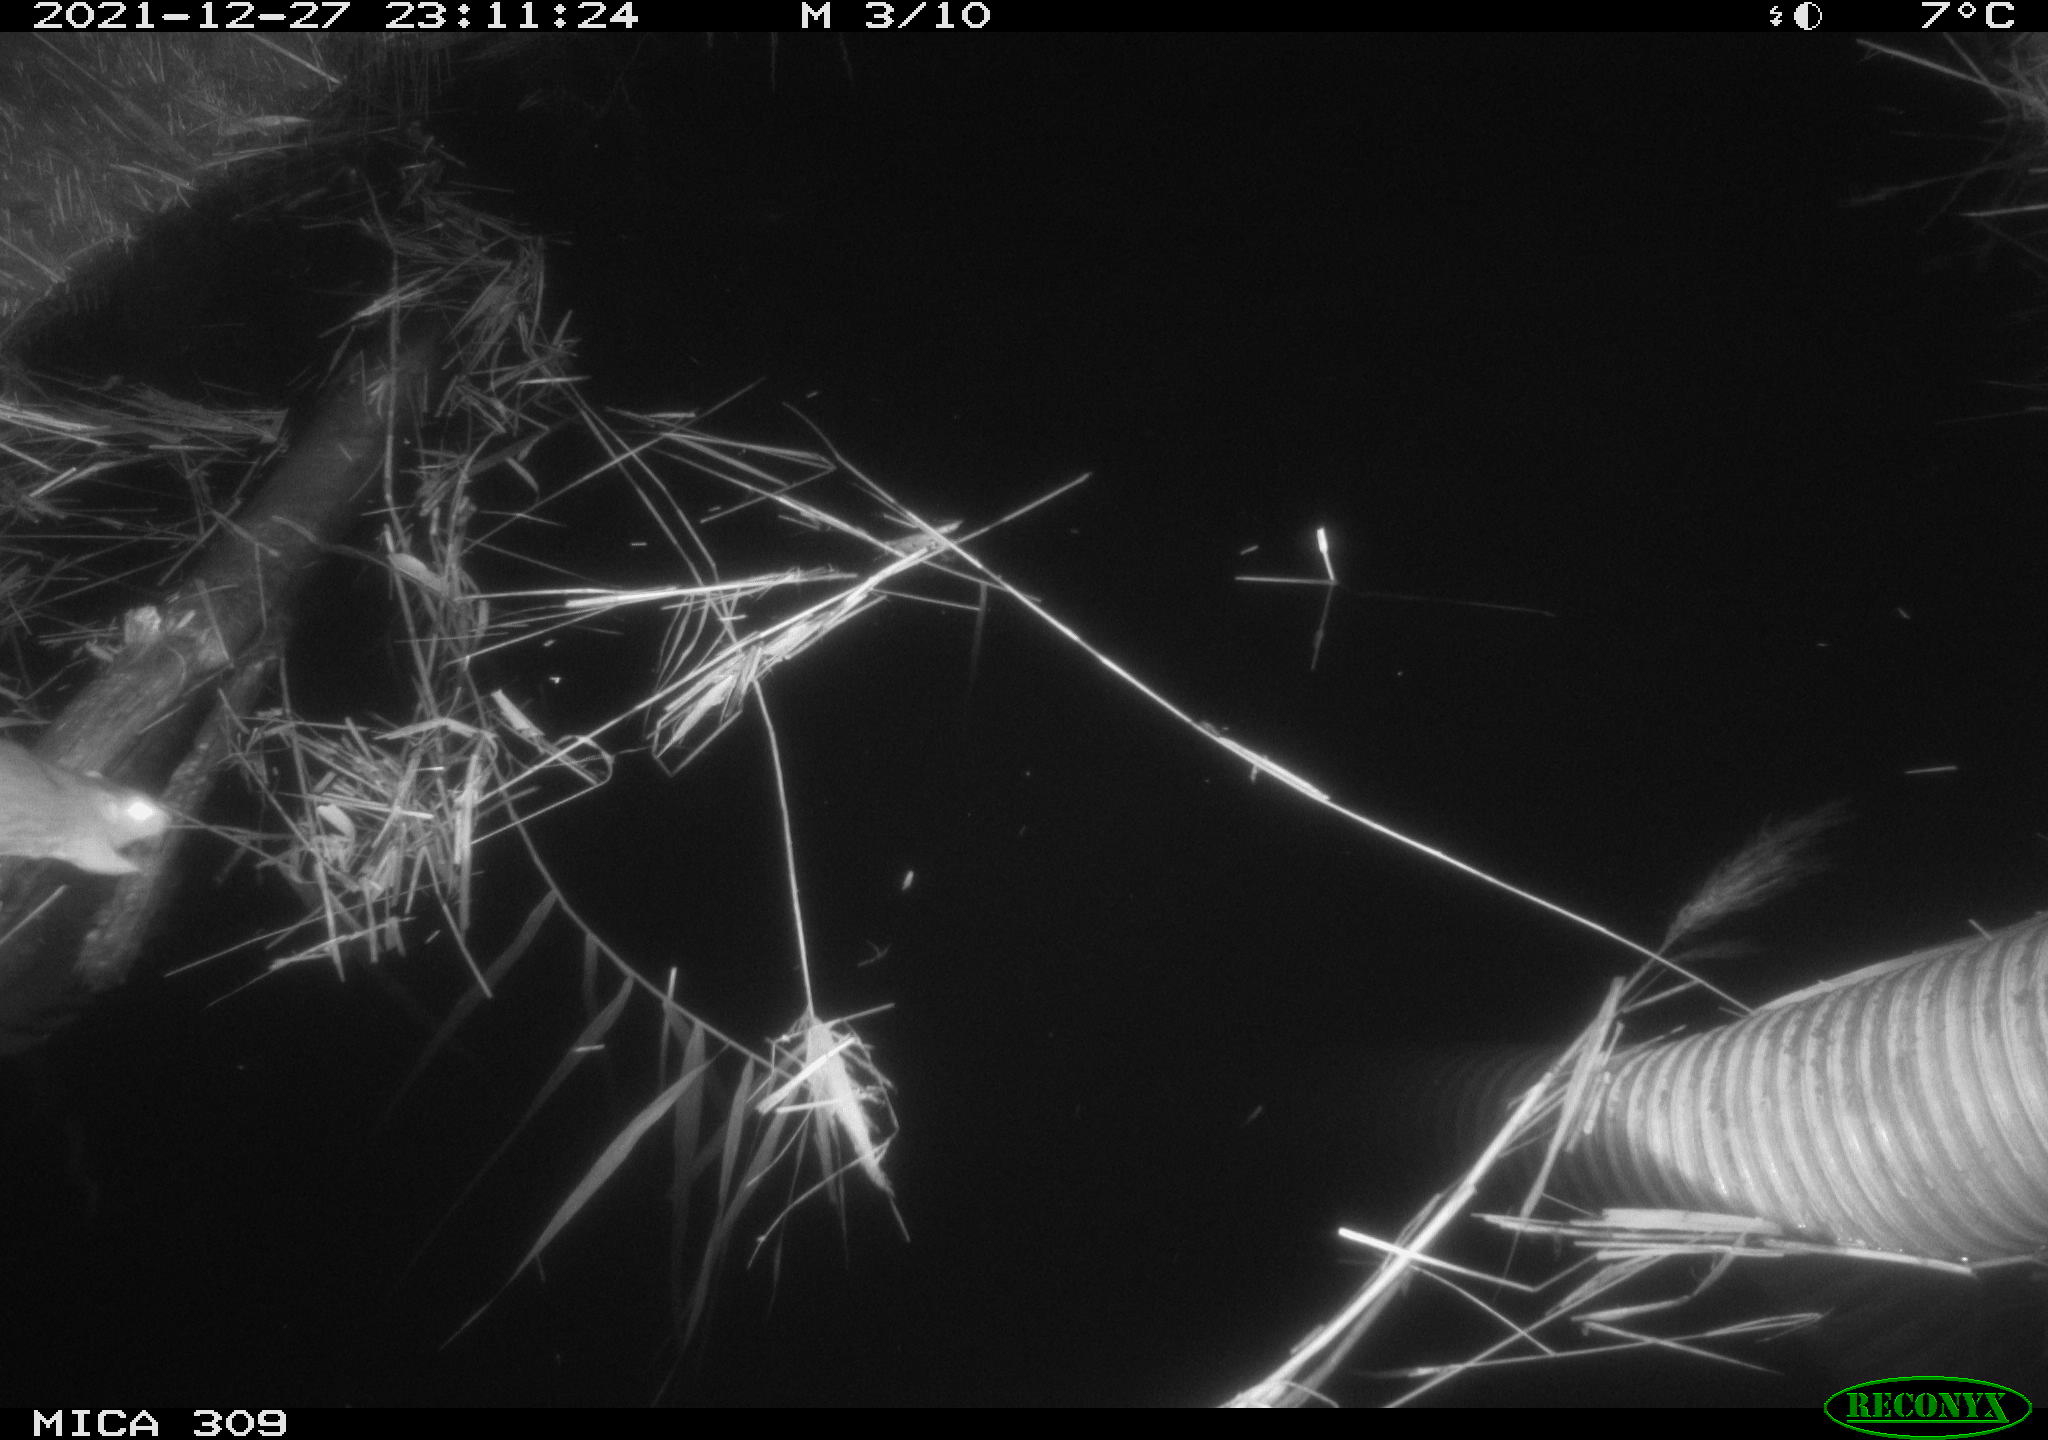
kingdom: Animalia
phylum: Chordata
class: Mammalia
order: Rodentia
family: Muridae
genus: Rattus
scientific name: Rattus norvegicus
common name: Brown rat
